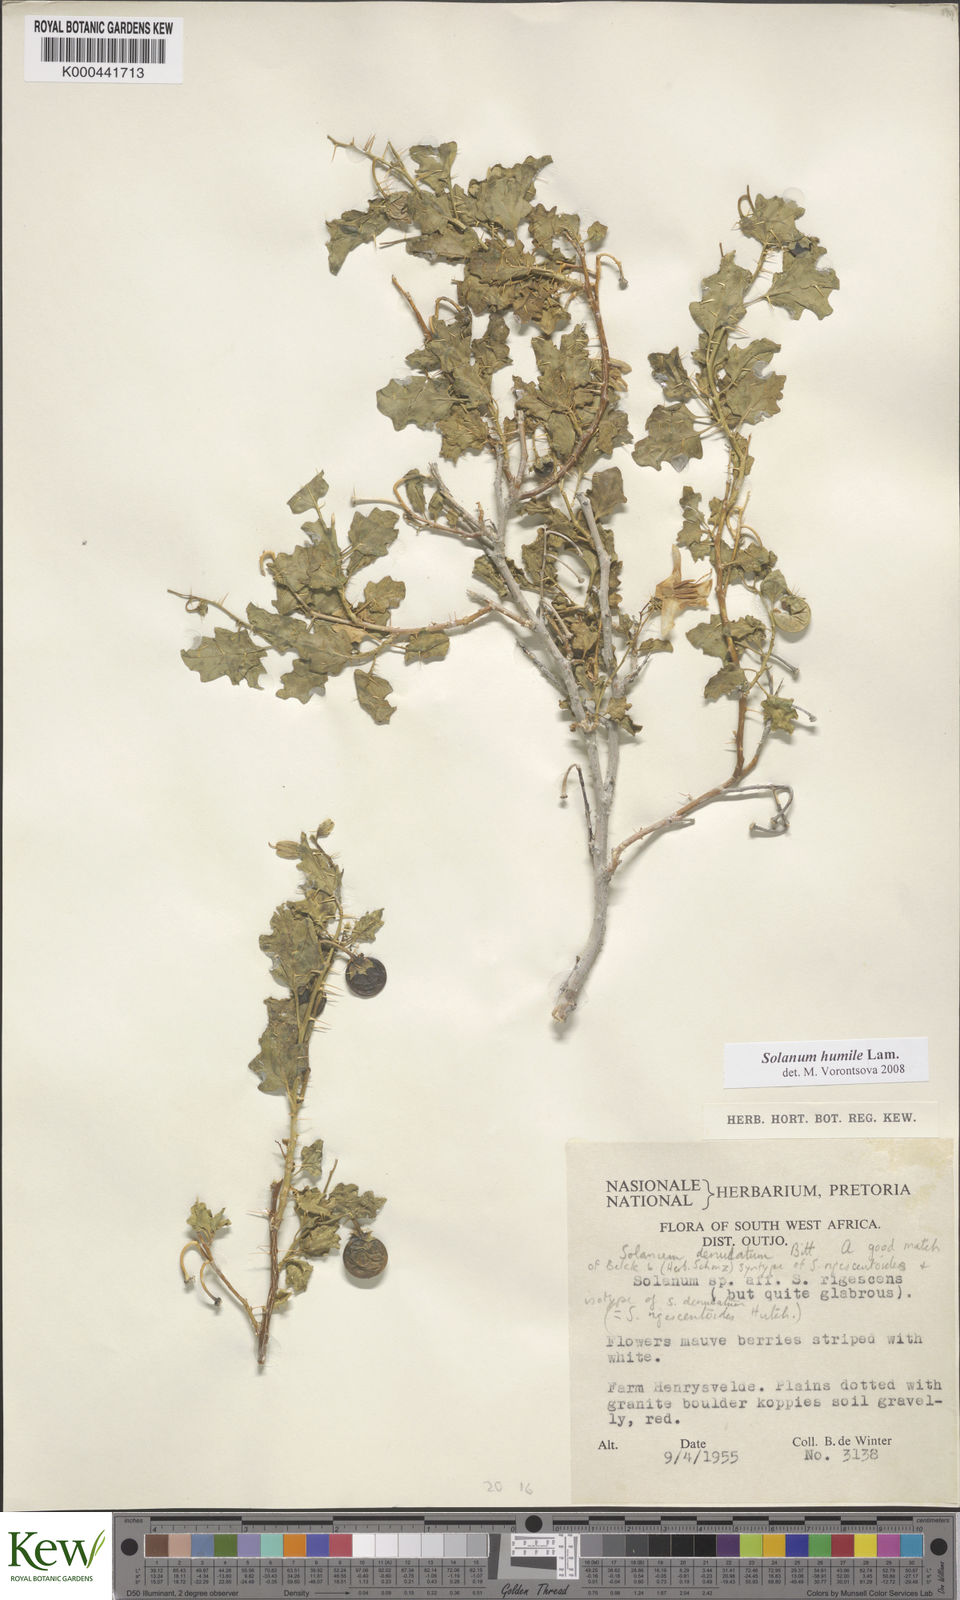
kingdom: Plantae
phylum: Tracheophyta
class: Magnoliopsida
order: Solanales
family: Solanaceae
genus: Solanum
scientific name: Solanum humile
